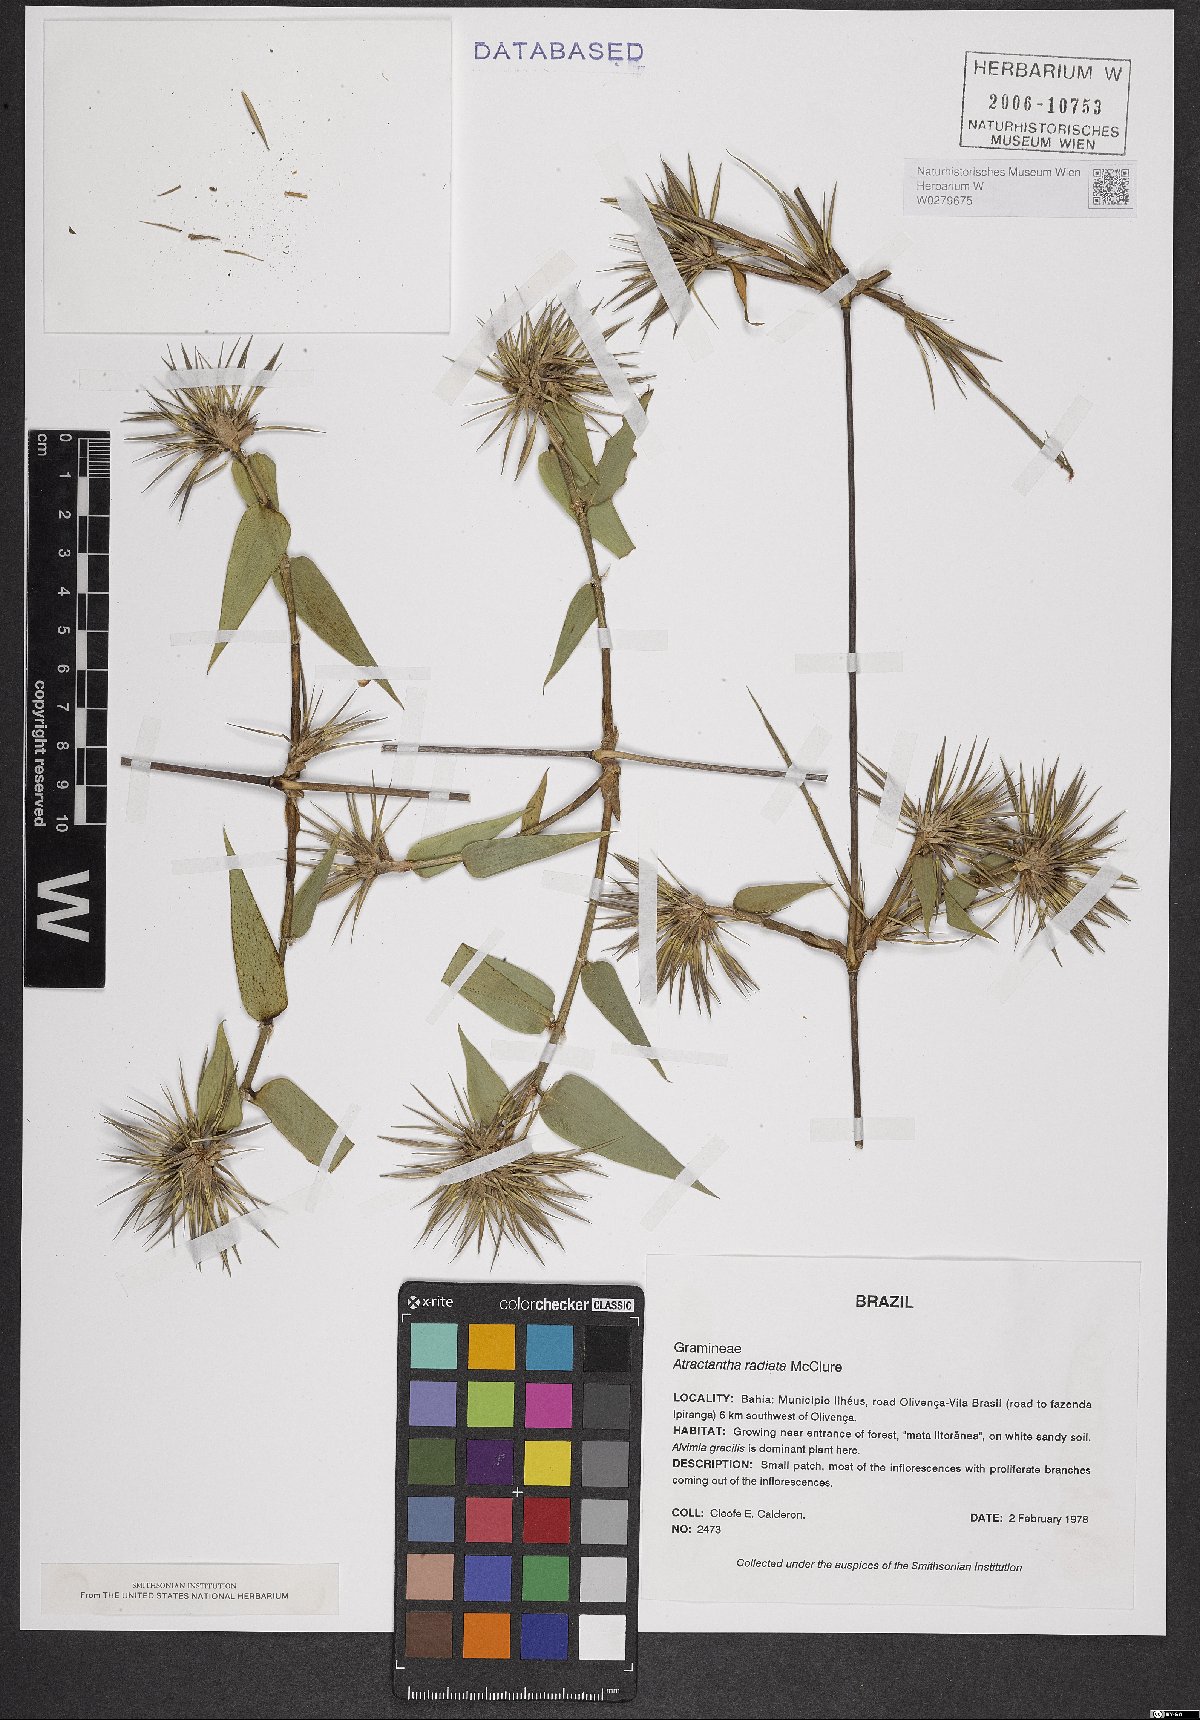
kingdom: Plantae
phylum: Tracheophyta
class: Liliopsida
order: Poales
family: Poaceae
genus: Atractantha
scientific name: Atractantha radiata
